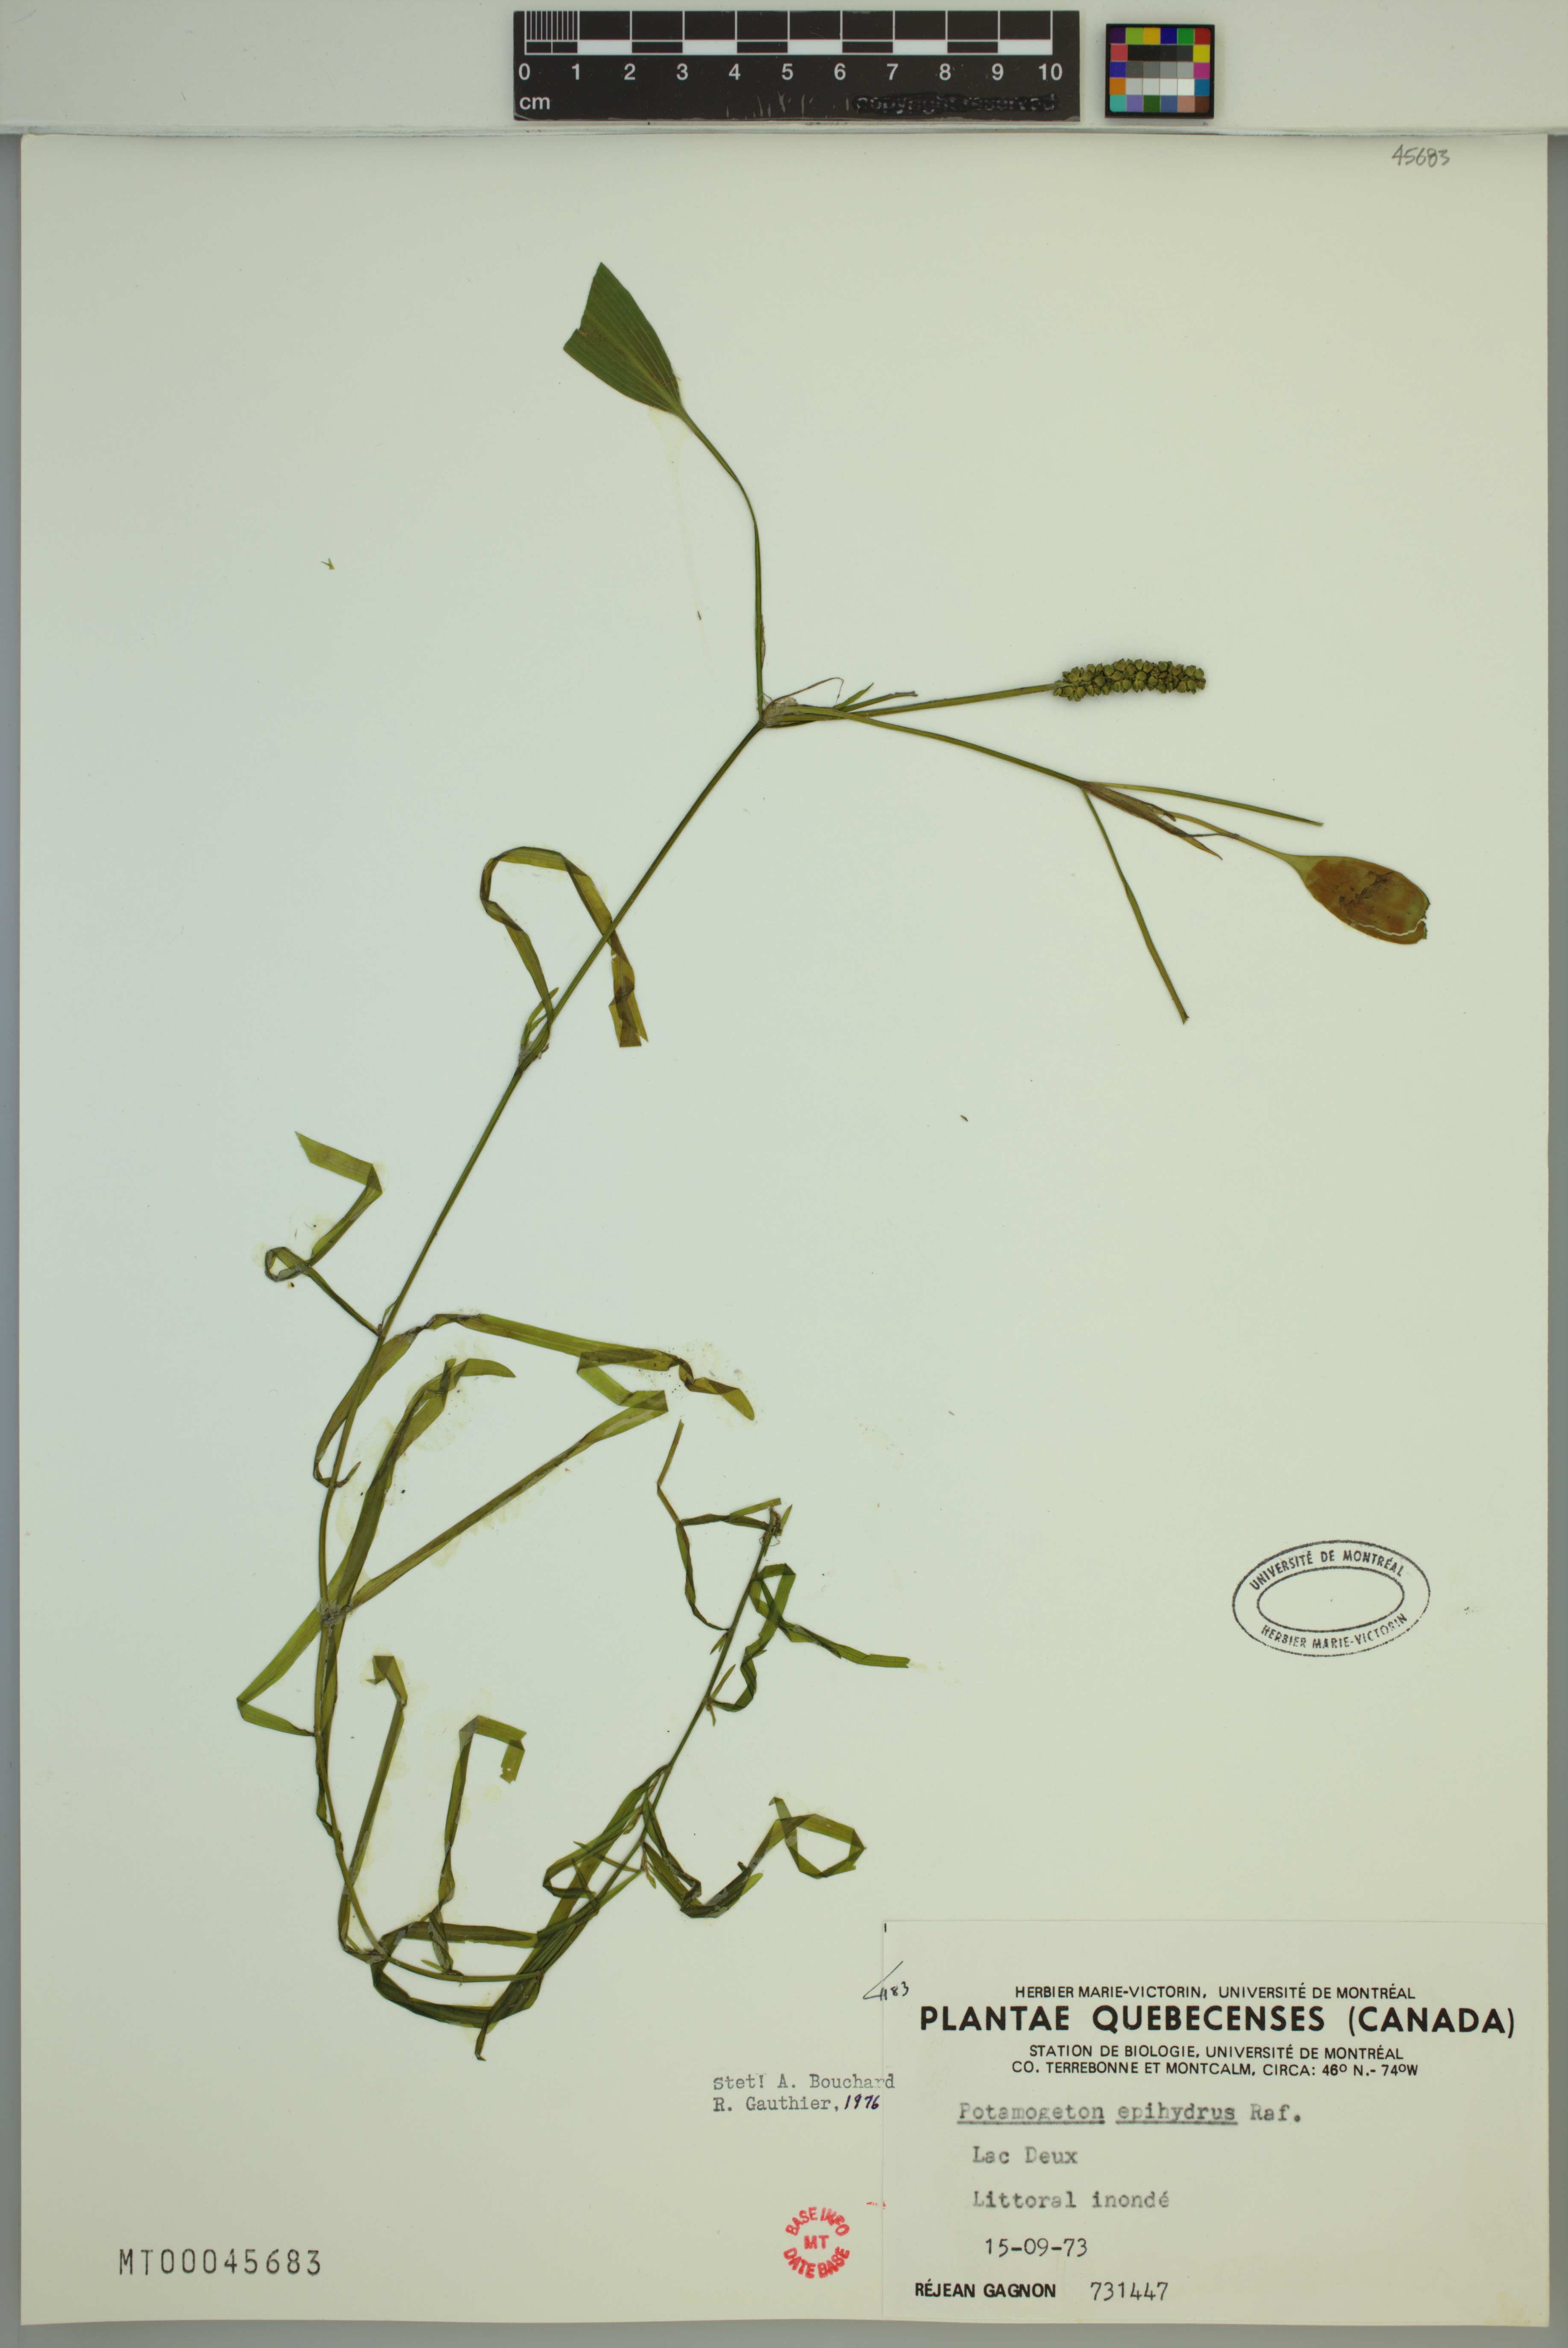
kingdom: Plantae
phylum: Tracheophyta
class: Liliopsida
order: Alismatales
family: Potamogetonaceae
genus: Potamogeton
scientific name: Potamogeton epihydrus
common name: American pondweed
